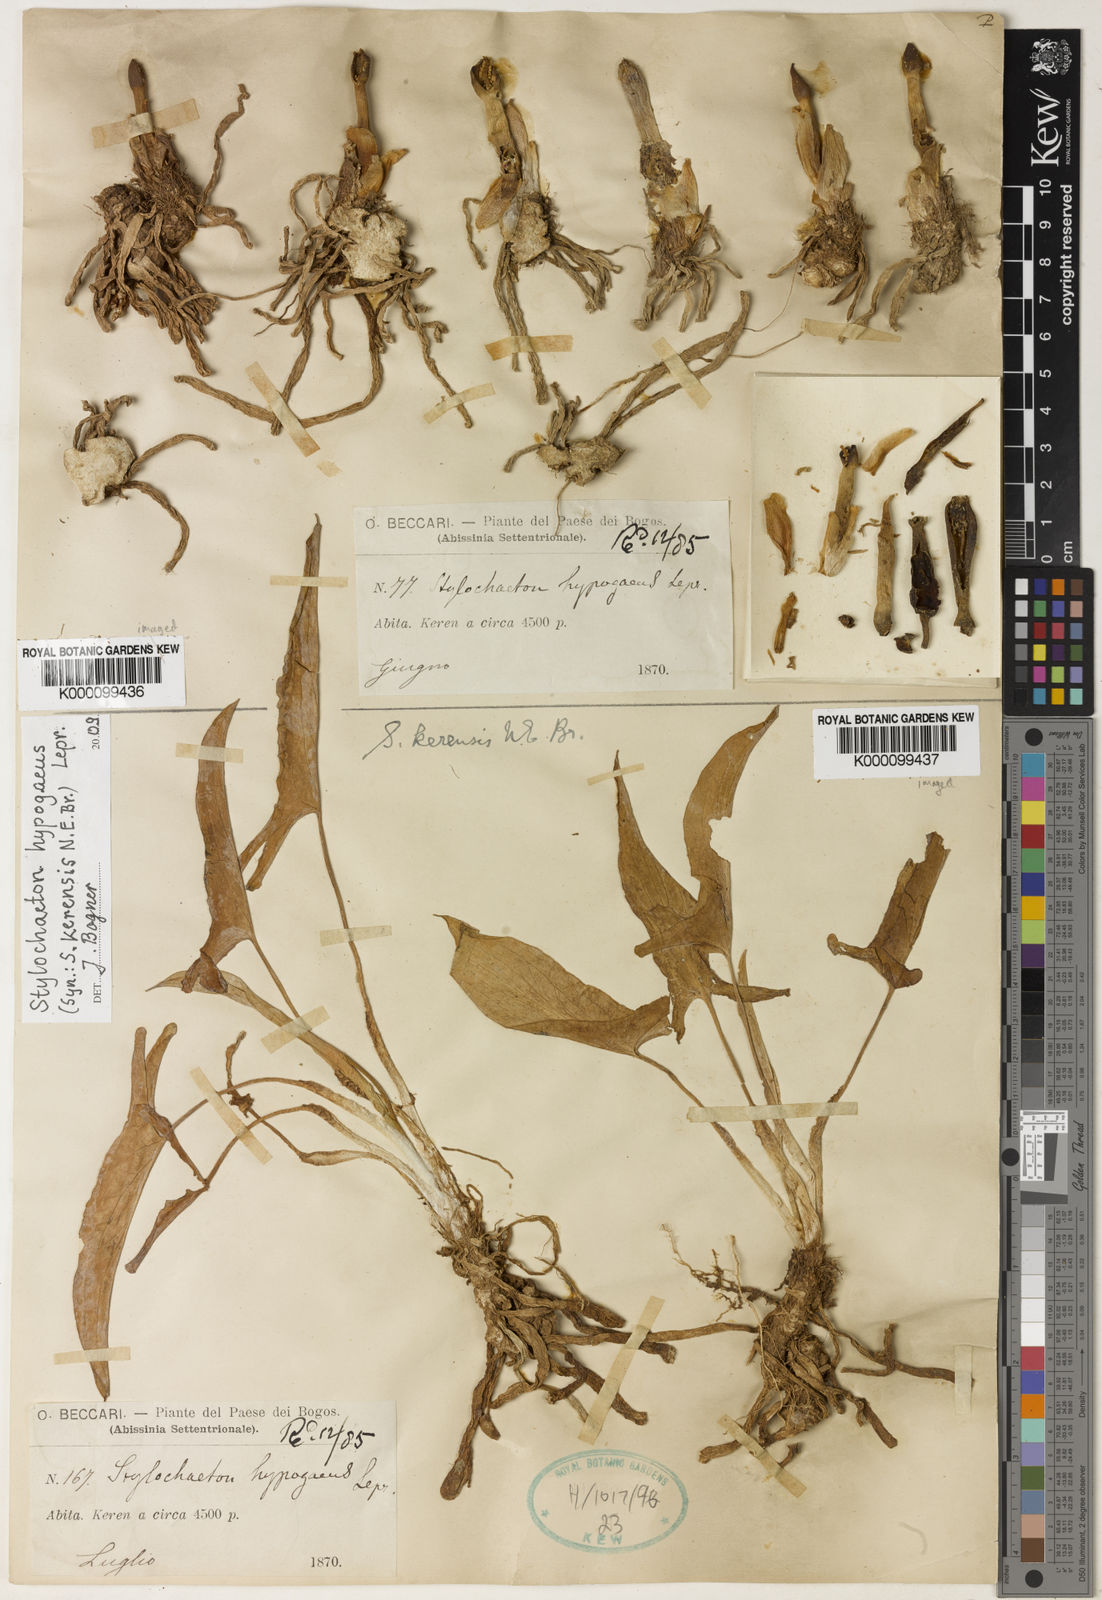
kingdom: Plantae
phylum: Tracheophyta
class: Liliopsida
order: Alismatales
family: Araceae
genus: Stylochaeton
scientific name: Stylochaeton
